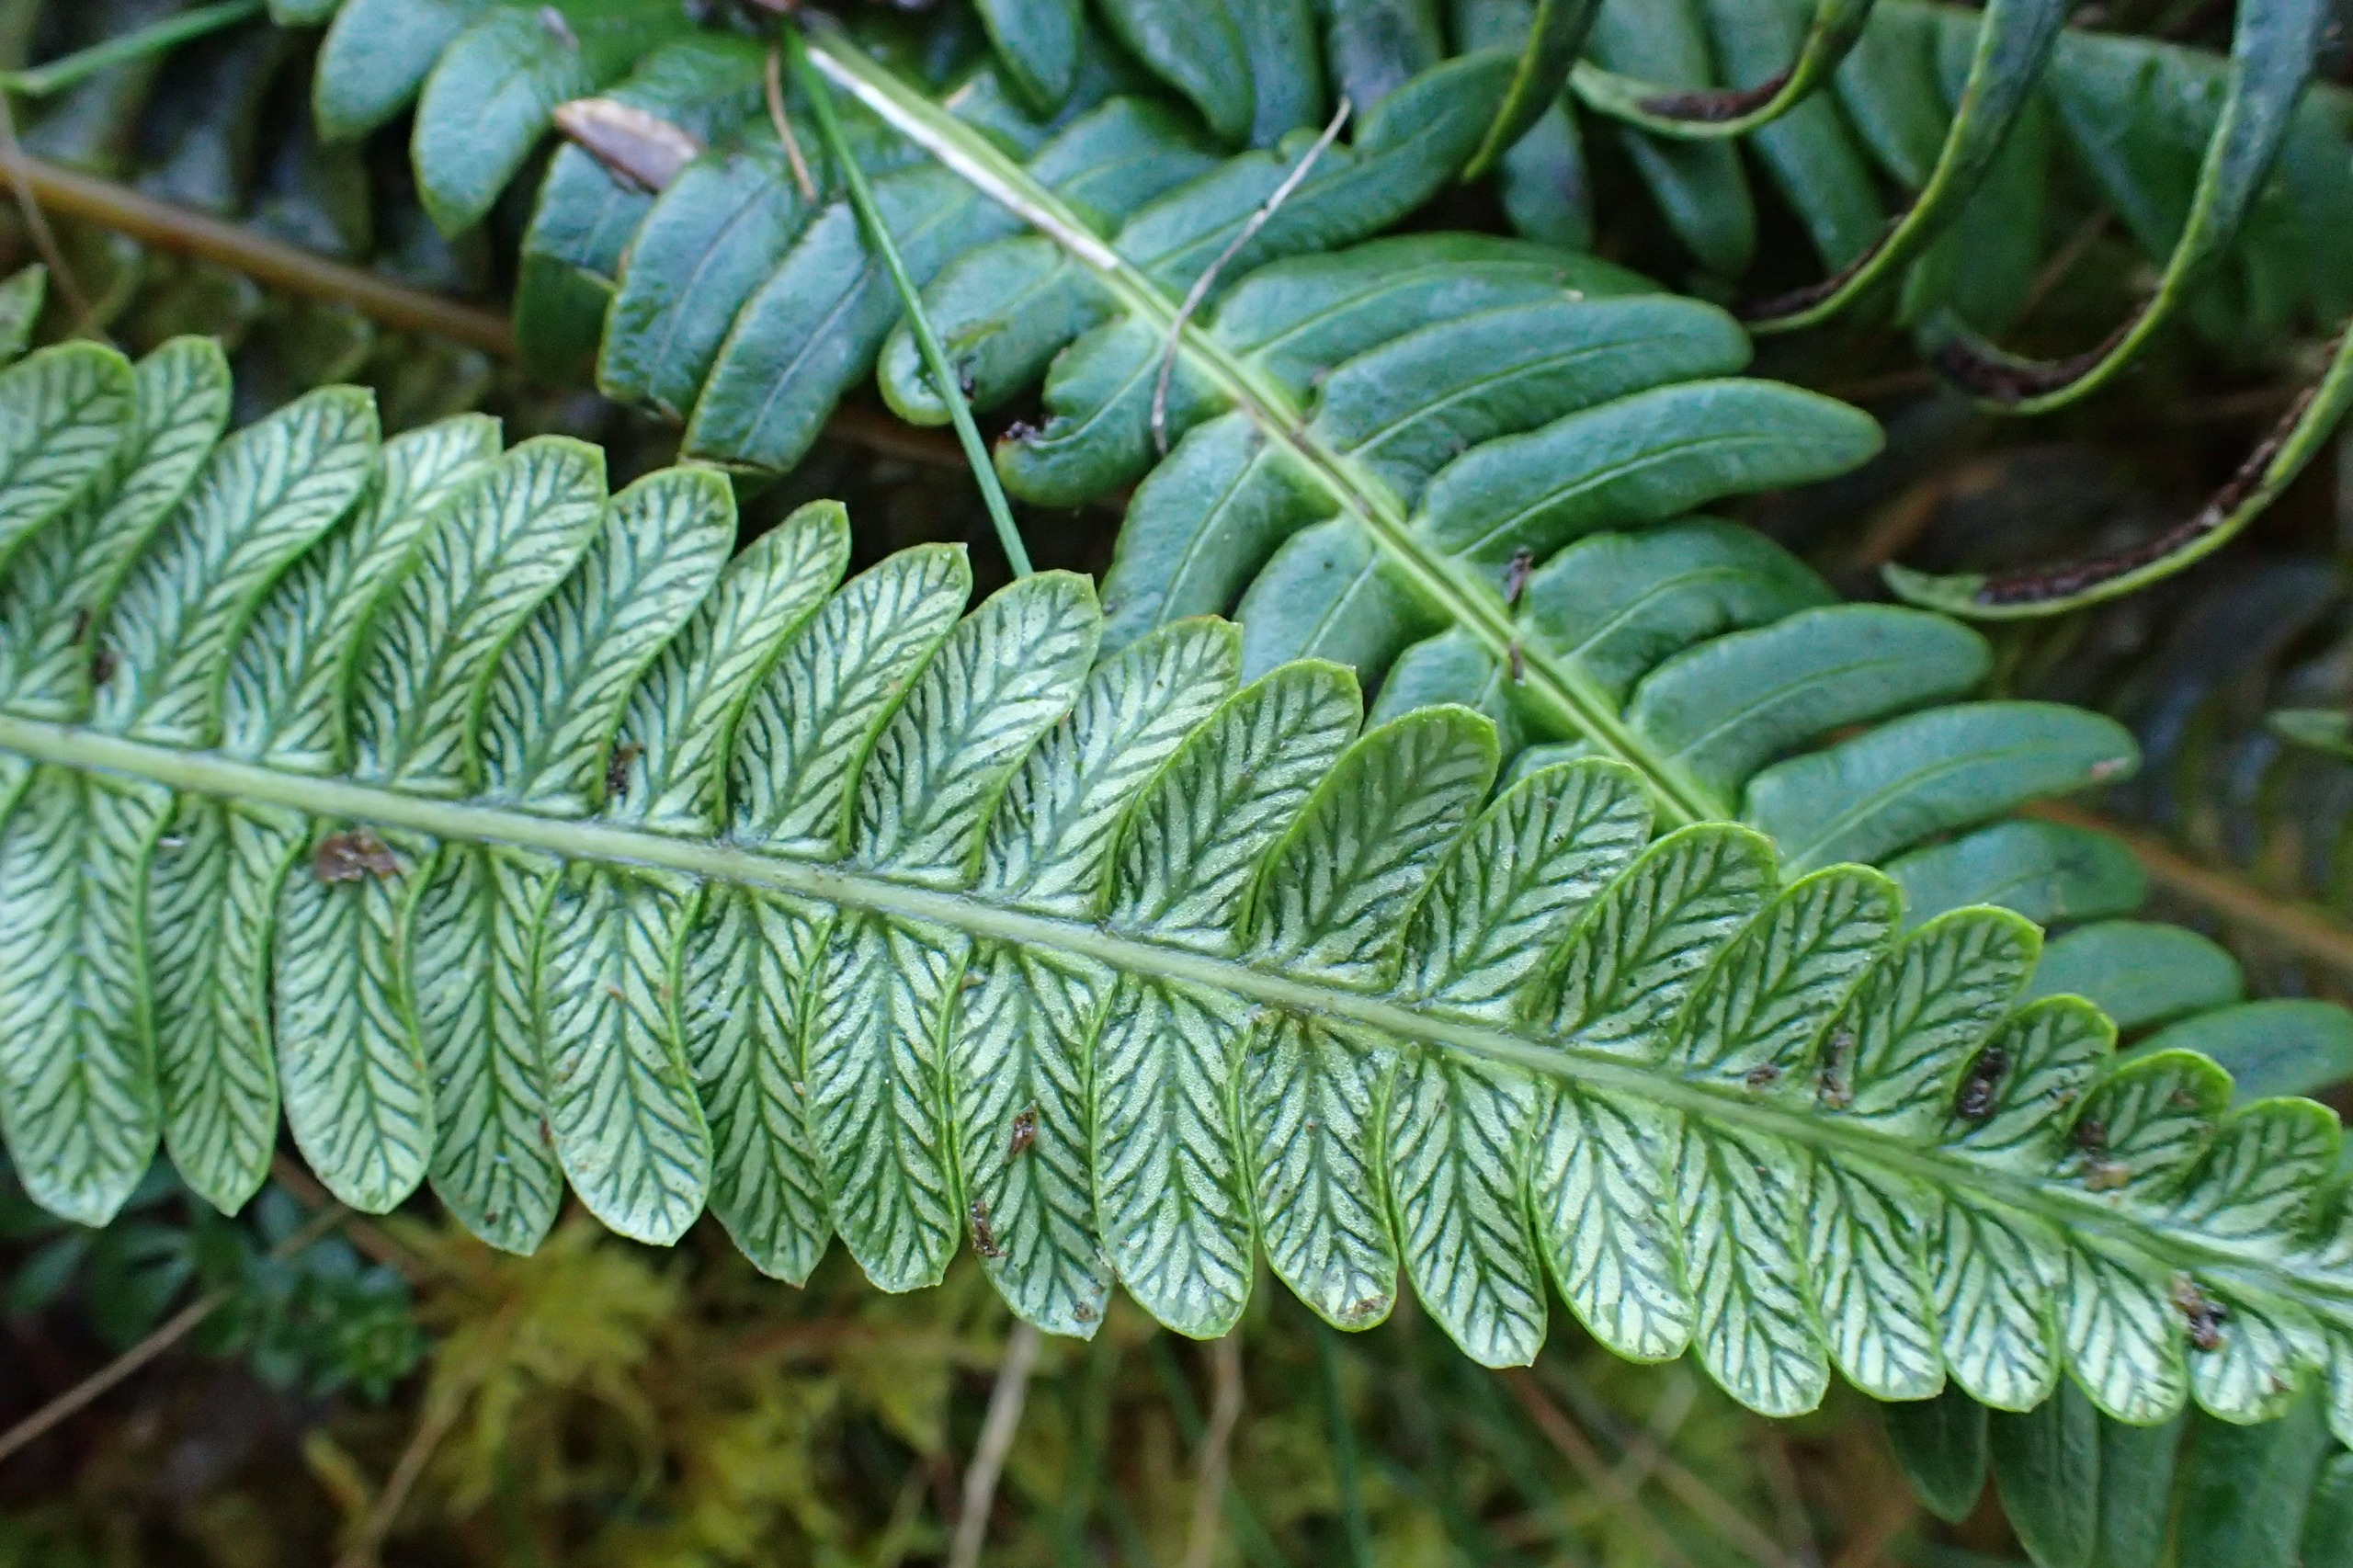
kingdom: Plantae
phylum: Tracheophyta
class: Polypodiopsida
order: Polypodiales
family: Blechnaceae
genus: Struthiopteris
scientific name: Struthiopteris spicant
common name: Kambregne
